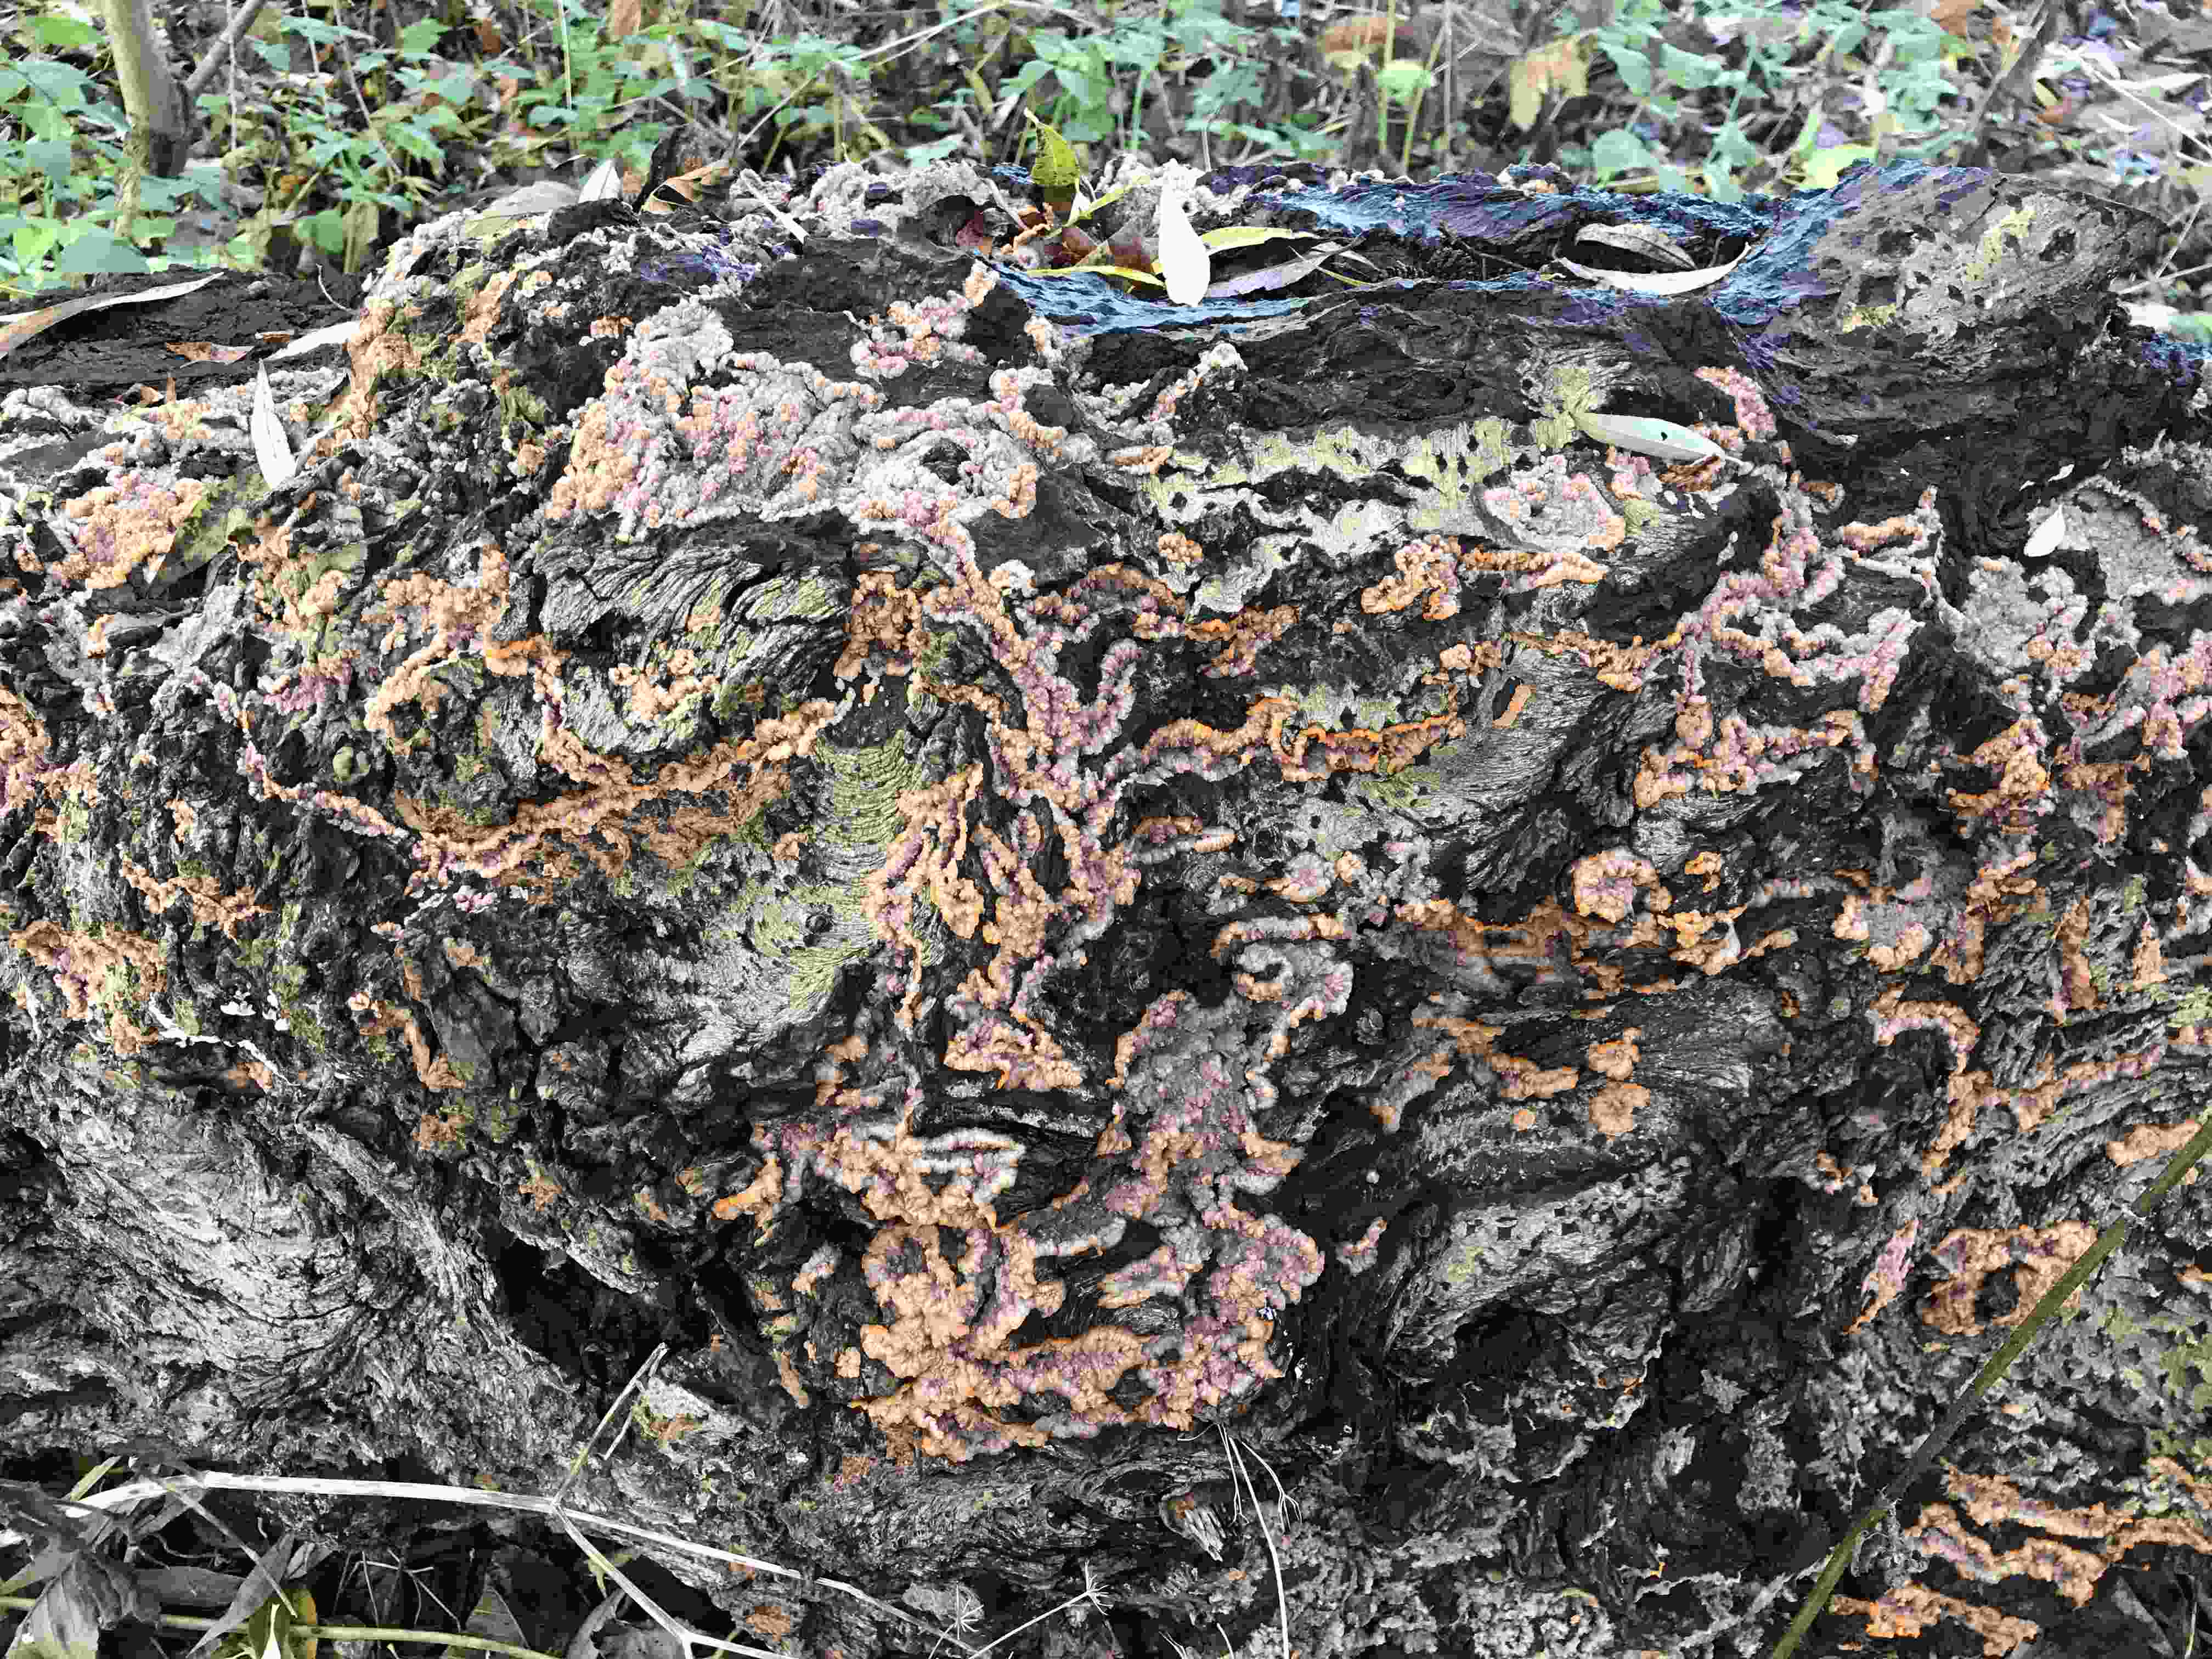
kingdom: Fungi
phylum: Basidiomycota
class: Agaricomycetes
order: Polyporales
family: Meruliaceae
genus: Phlebia
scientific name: Phlebia radiata
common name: stråle-åresvamp
